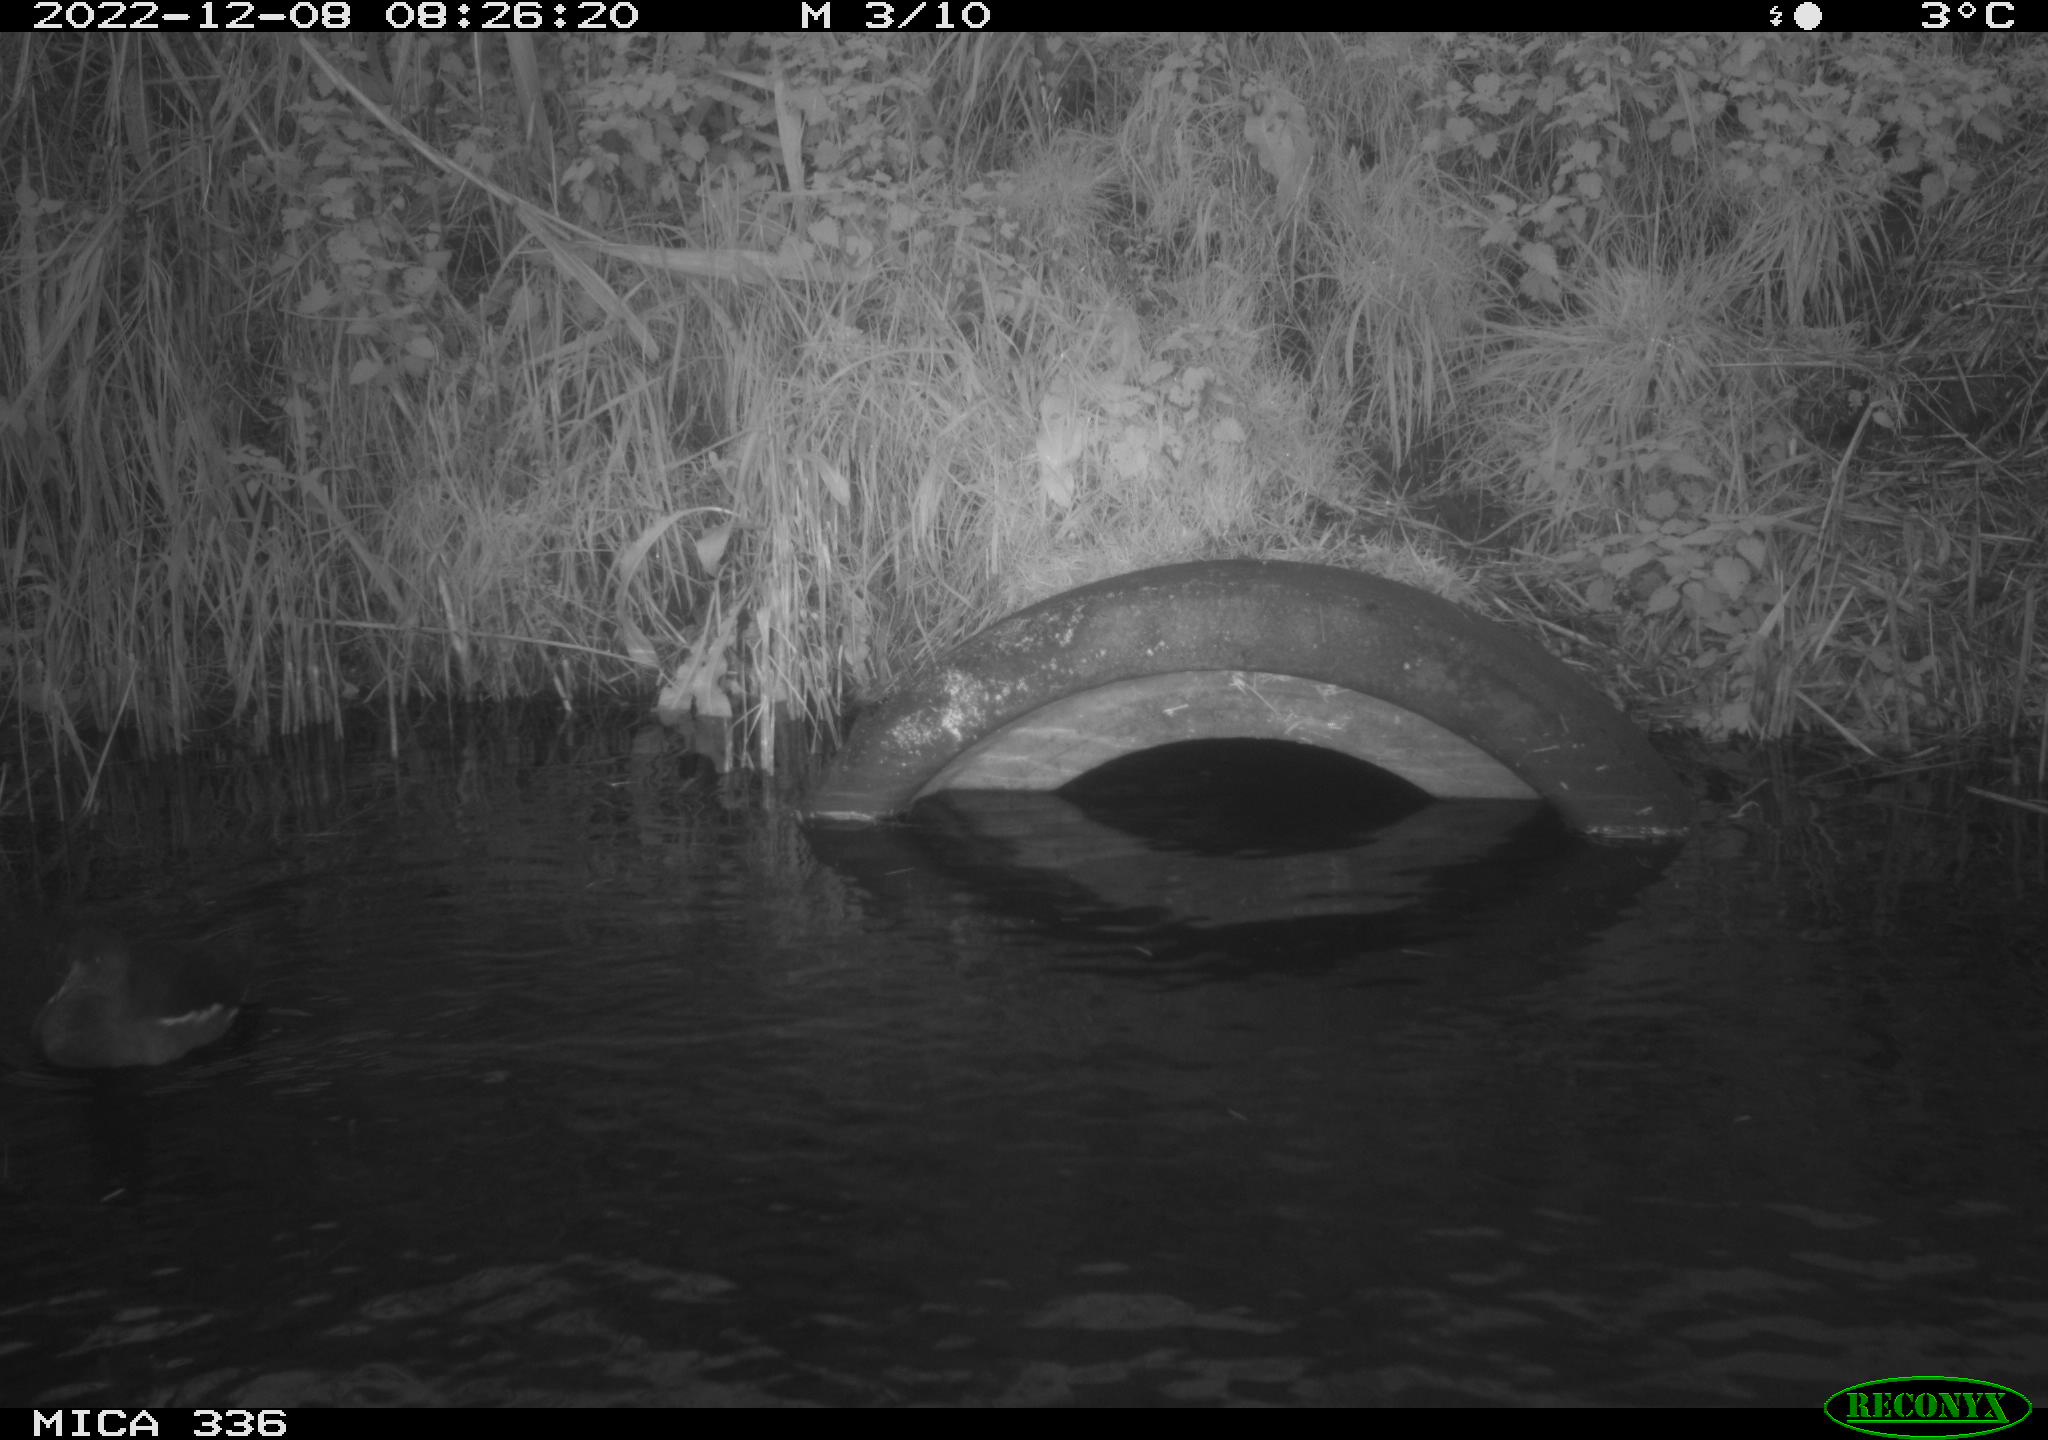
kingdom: Animalia
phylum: Chordata
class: Aves
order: Gruiformes
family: Rallidae
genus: Gallinula
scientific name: Gallinula chloropus
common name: Common moorhen
